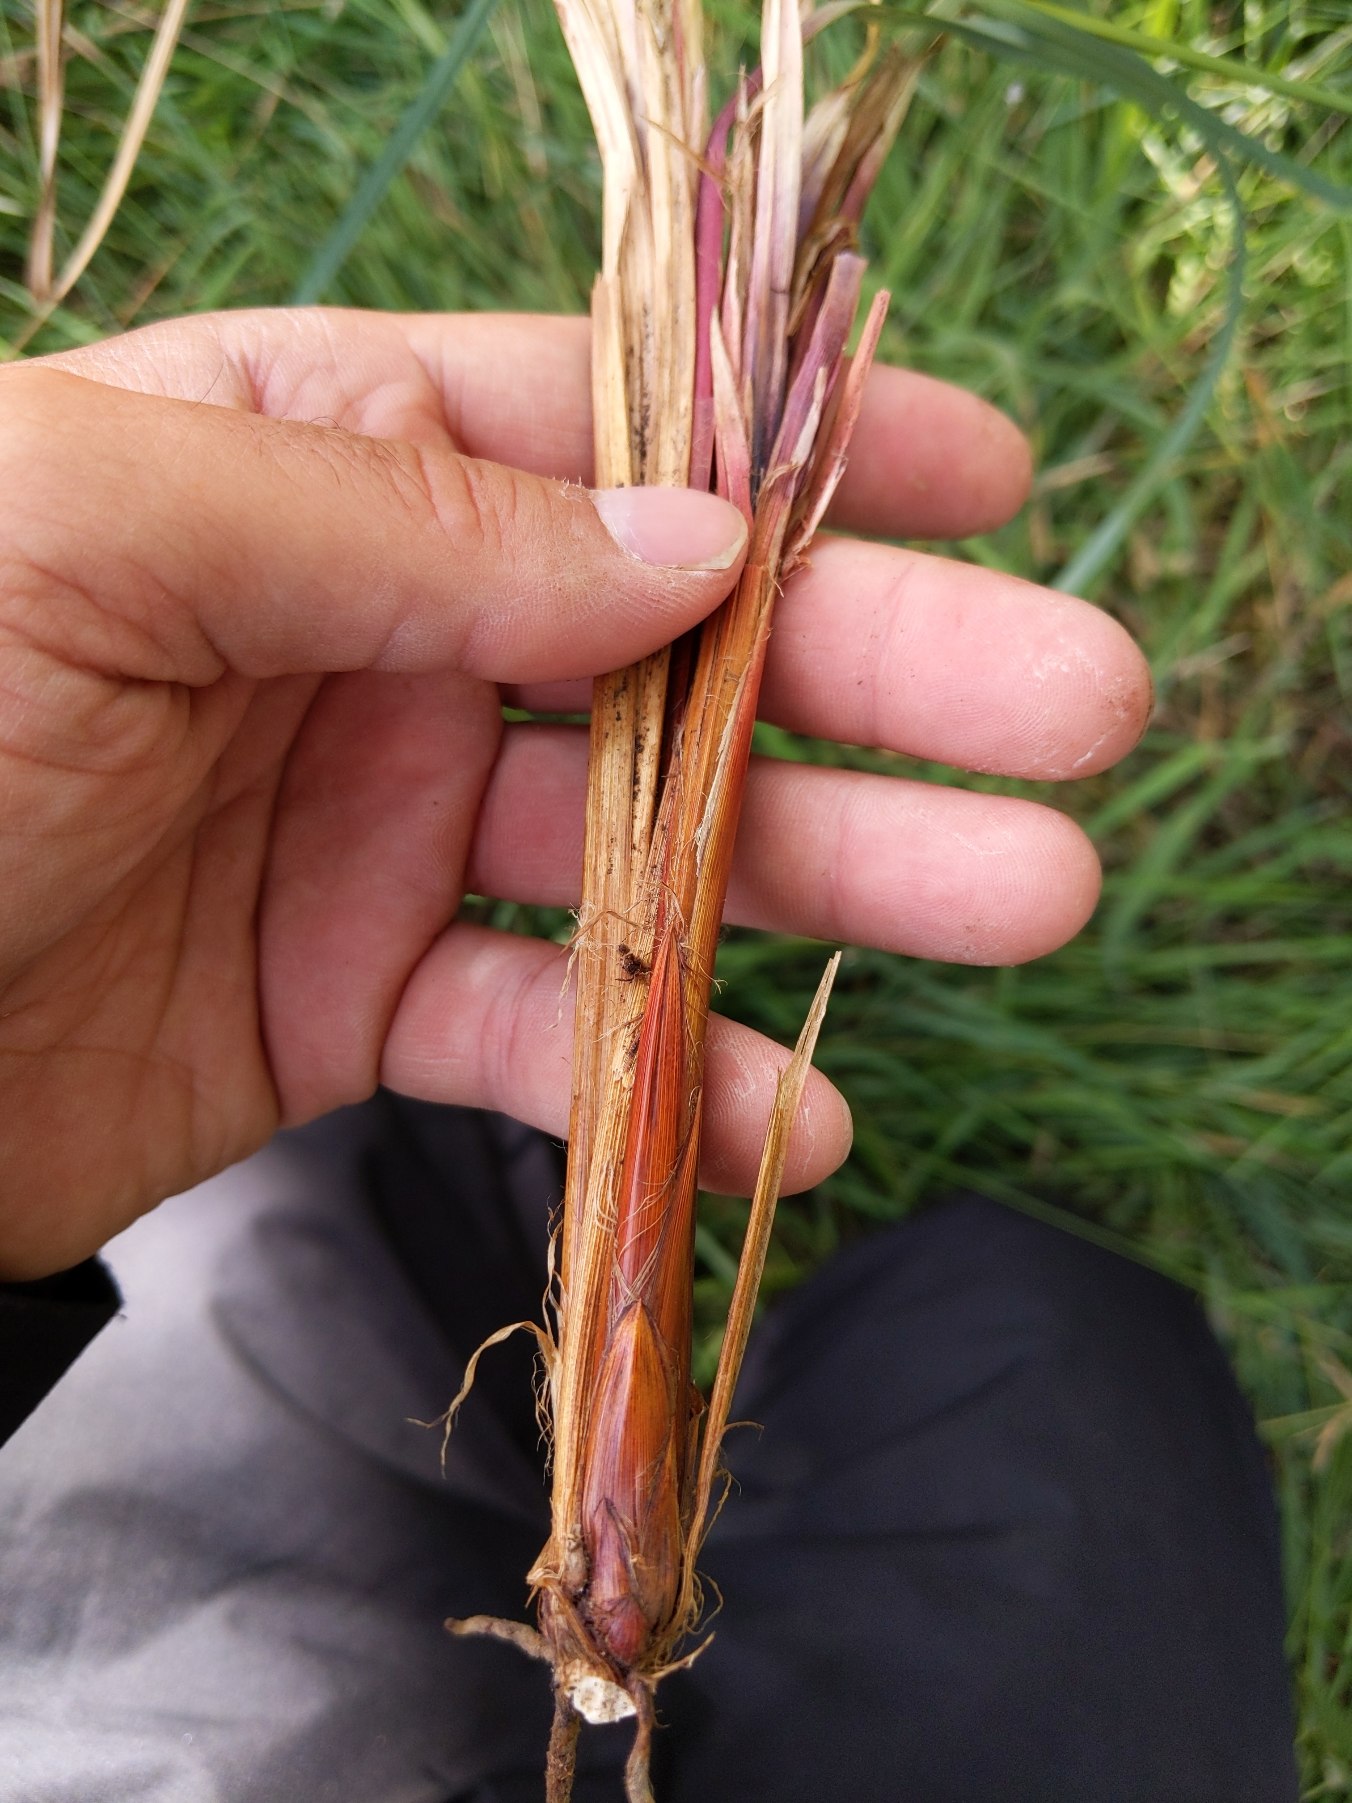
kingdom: Plantae
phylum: Tracheophyta
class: Liliopsida
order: Poales
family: Cyperaceae
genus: Carex
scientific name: Carex acutiformis
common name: Kær-star
